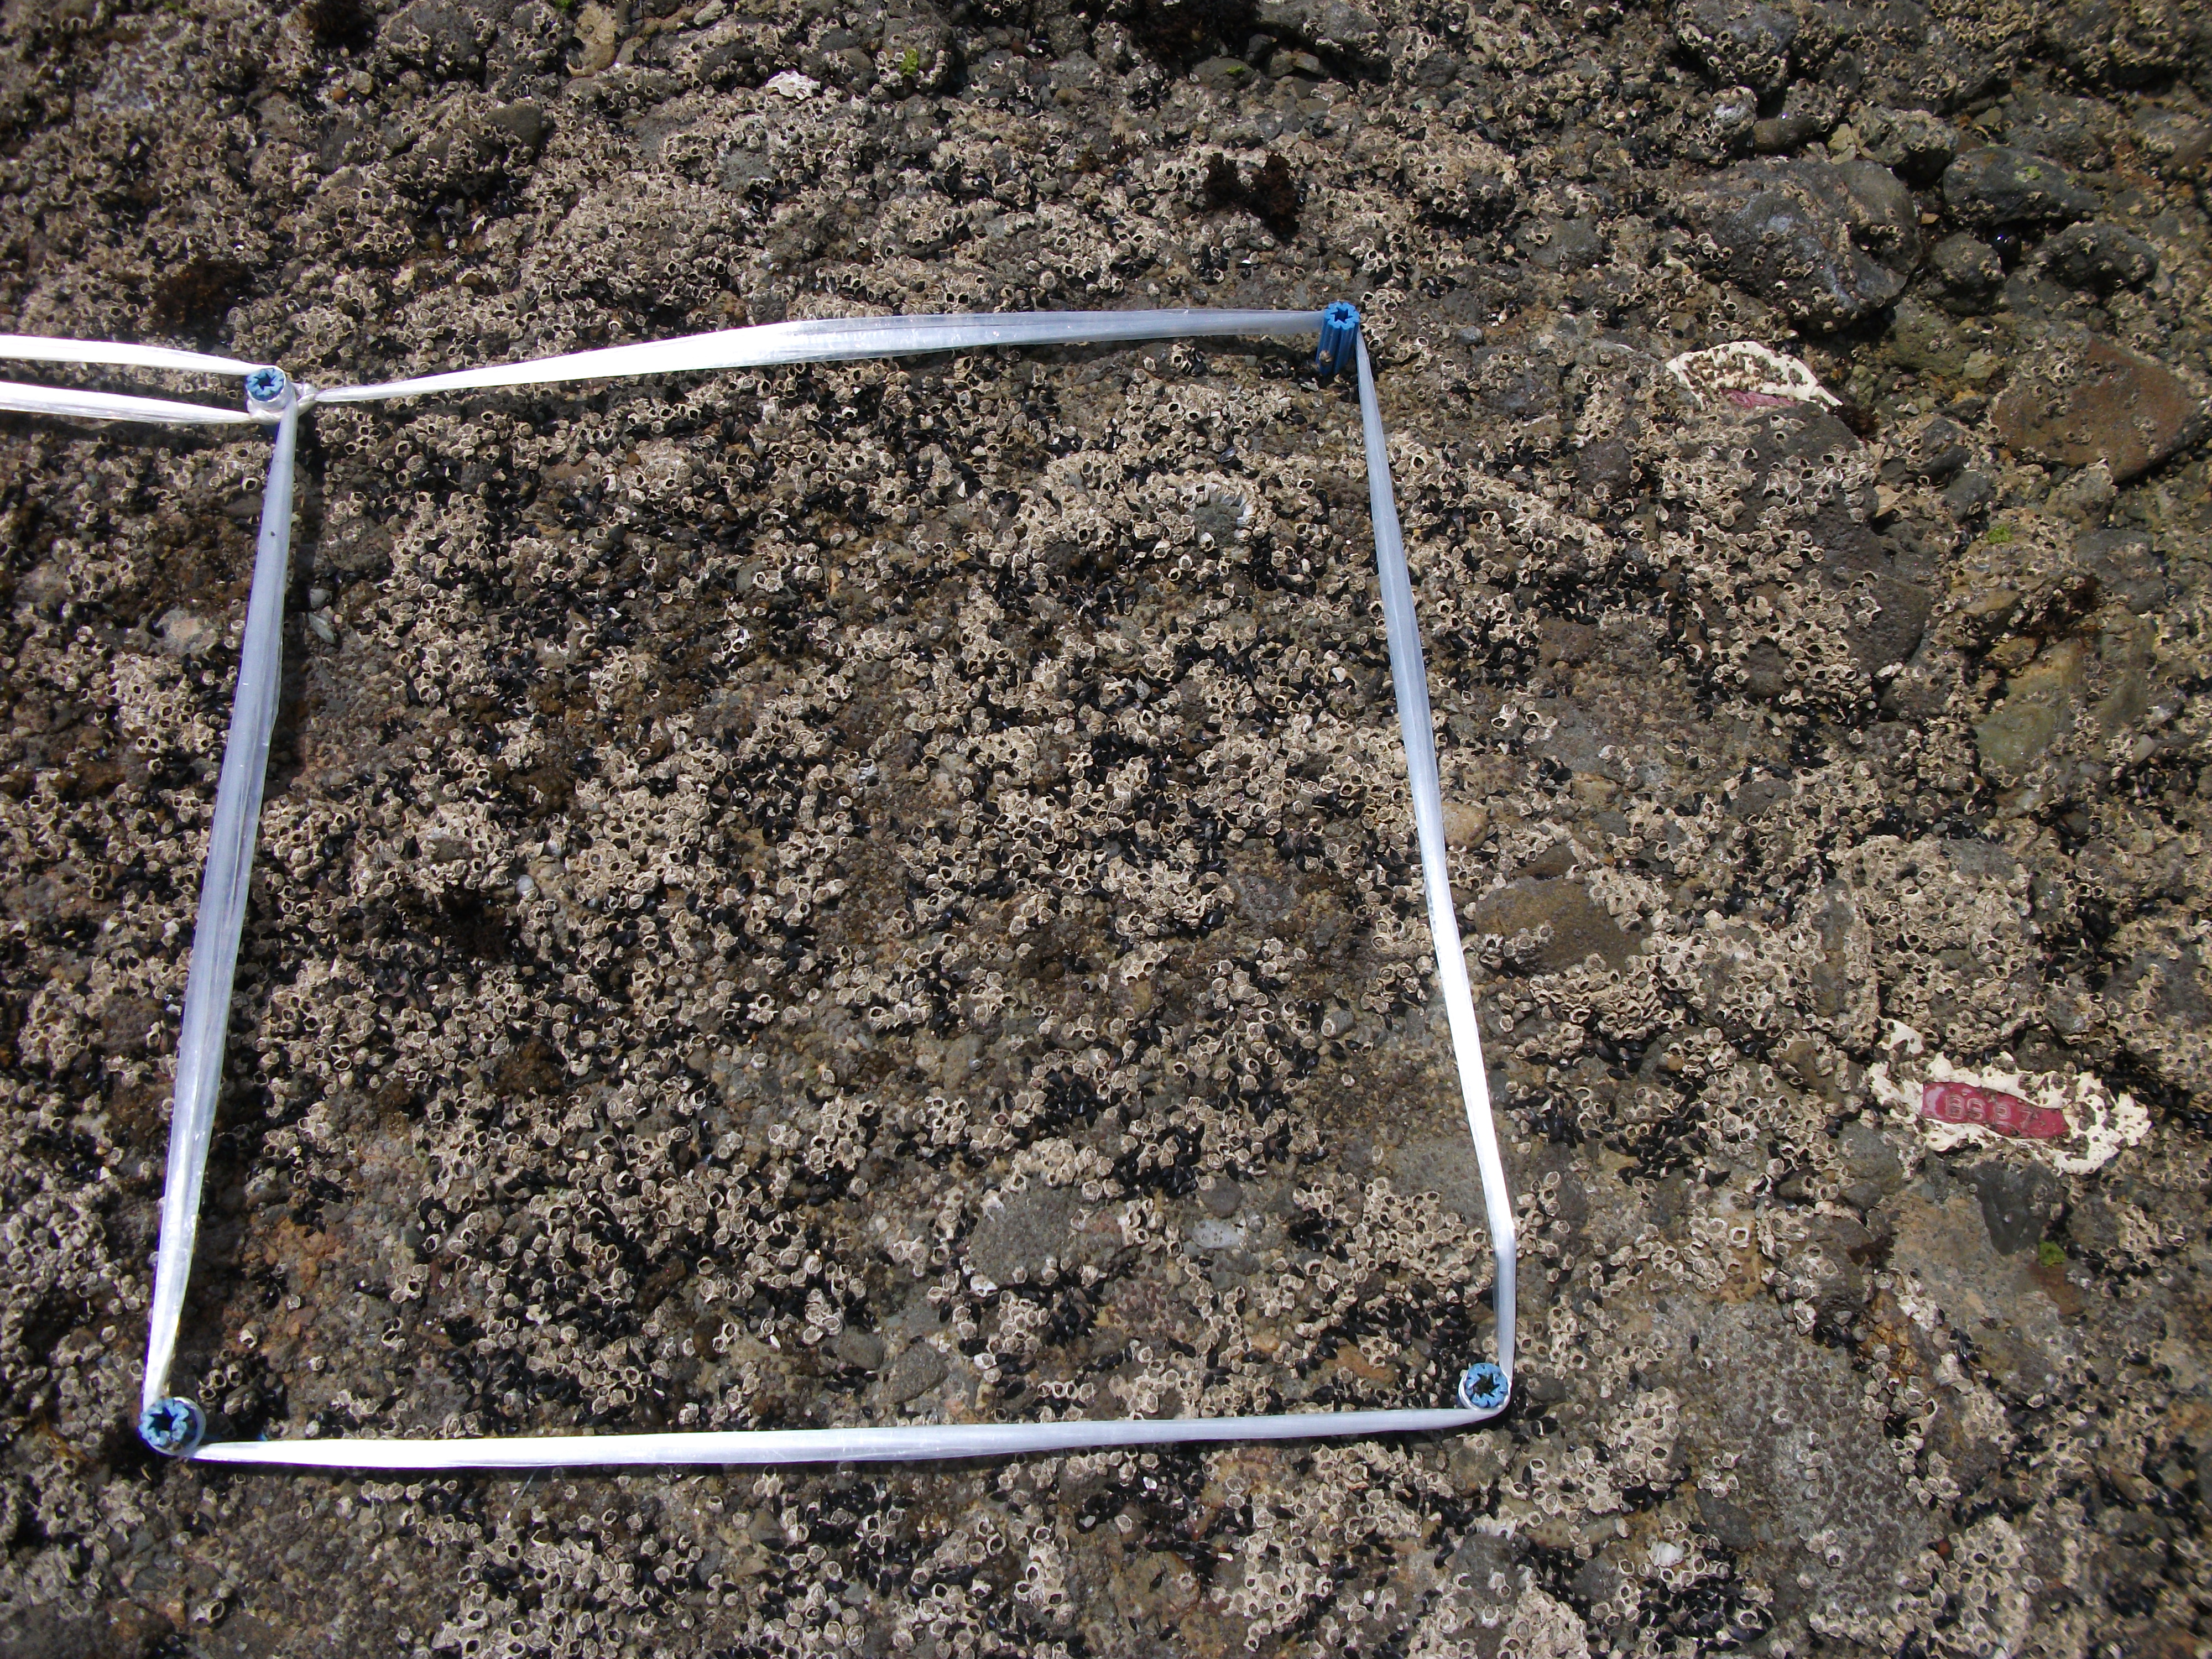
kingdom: Animalia
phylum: Arthropoda
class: Maxillopoda
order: Sessilia
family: Chthamalidae
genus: Chthamalus
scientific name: Chthamalus challengeri
